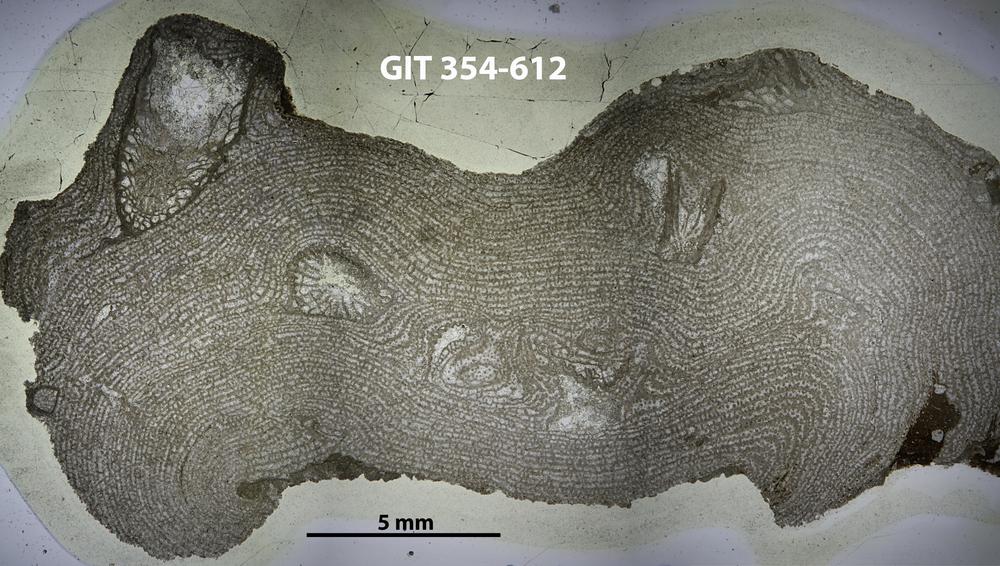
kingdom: Animalia
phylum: Porifera
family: Stromatoporellidae
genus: Simplexodictyon
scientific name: Simplexodictyon
